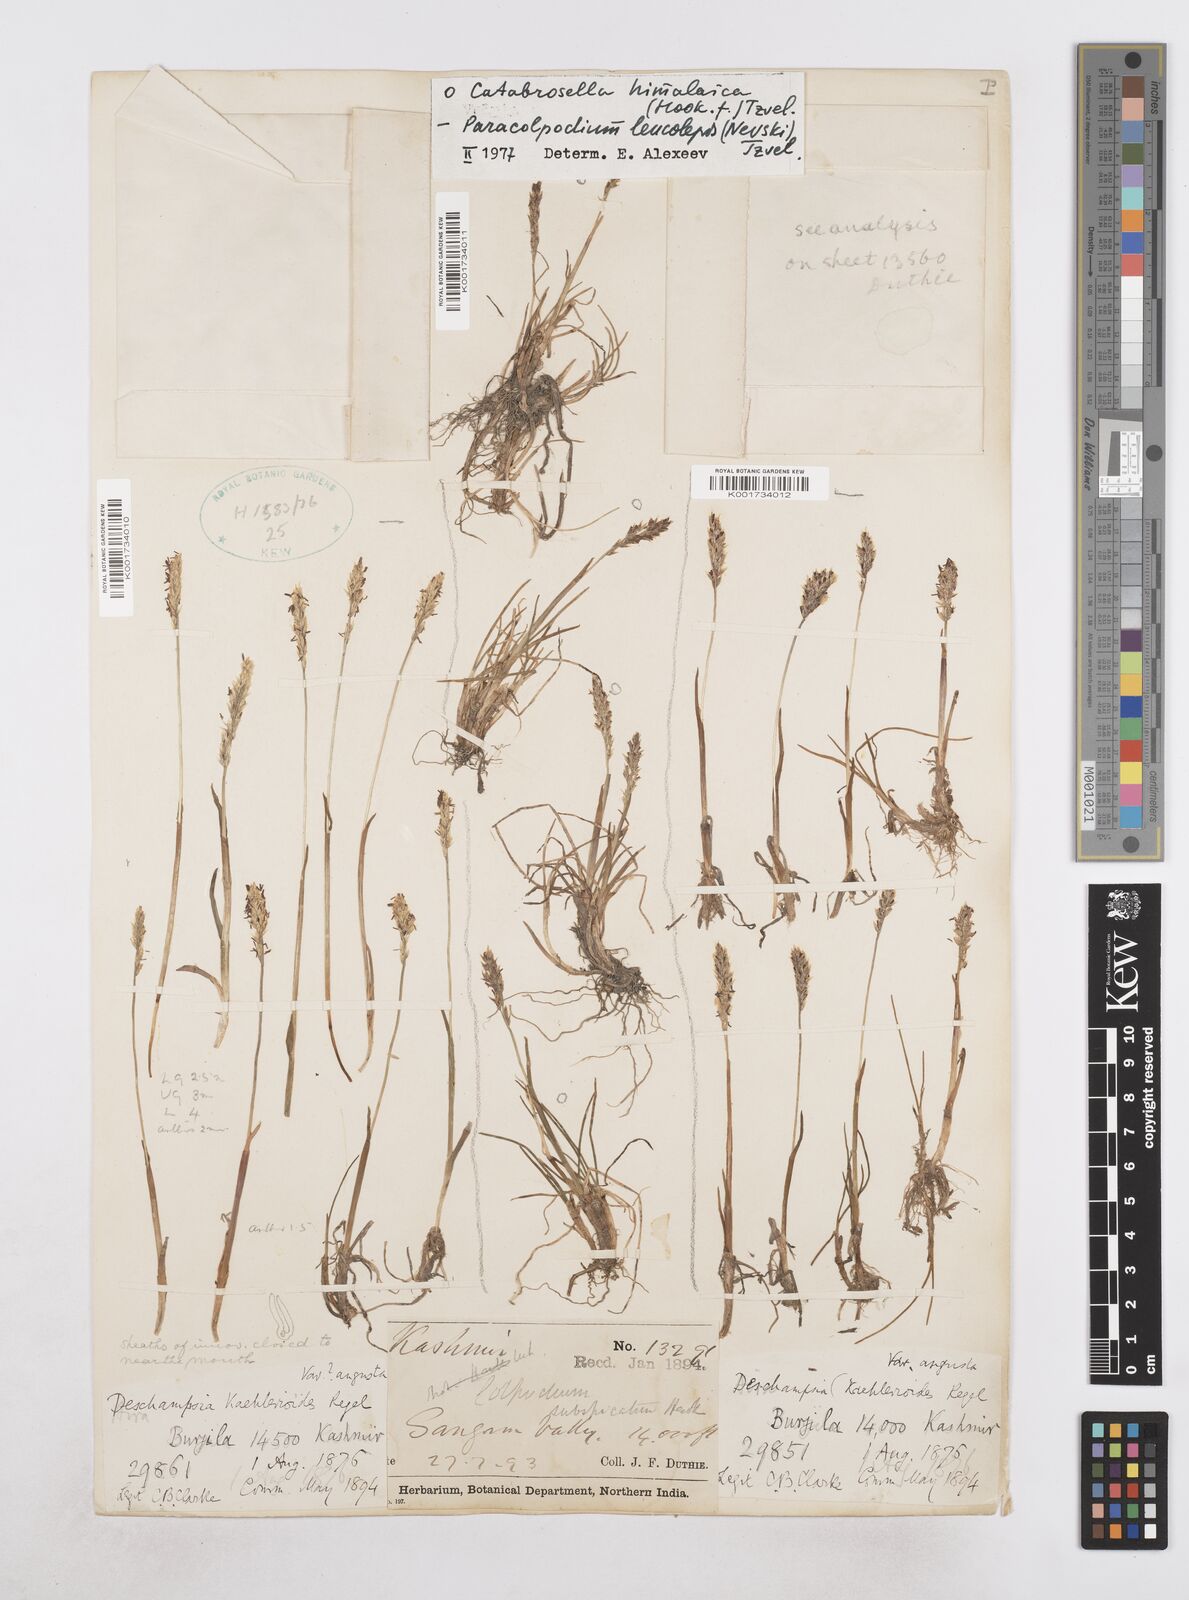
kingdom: Plantae
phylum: Tracheophyta
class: Liliopsida
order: Poales
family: Poaceae
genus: Paracolpodium
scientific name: Paracolpodium altaicum
